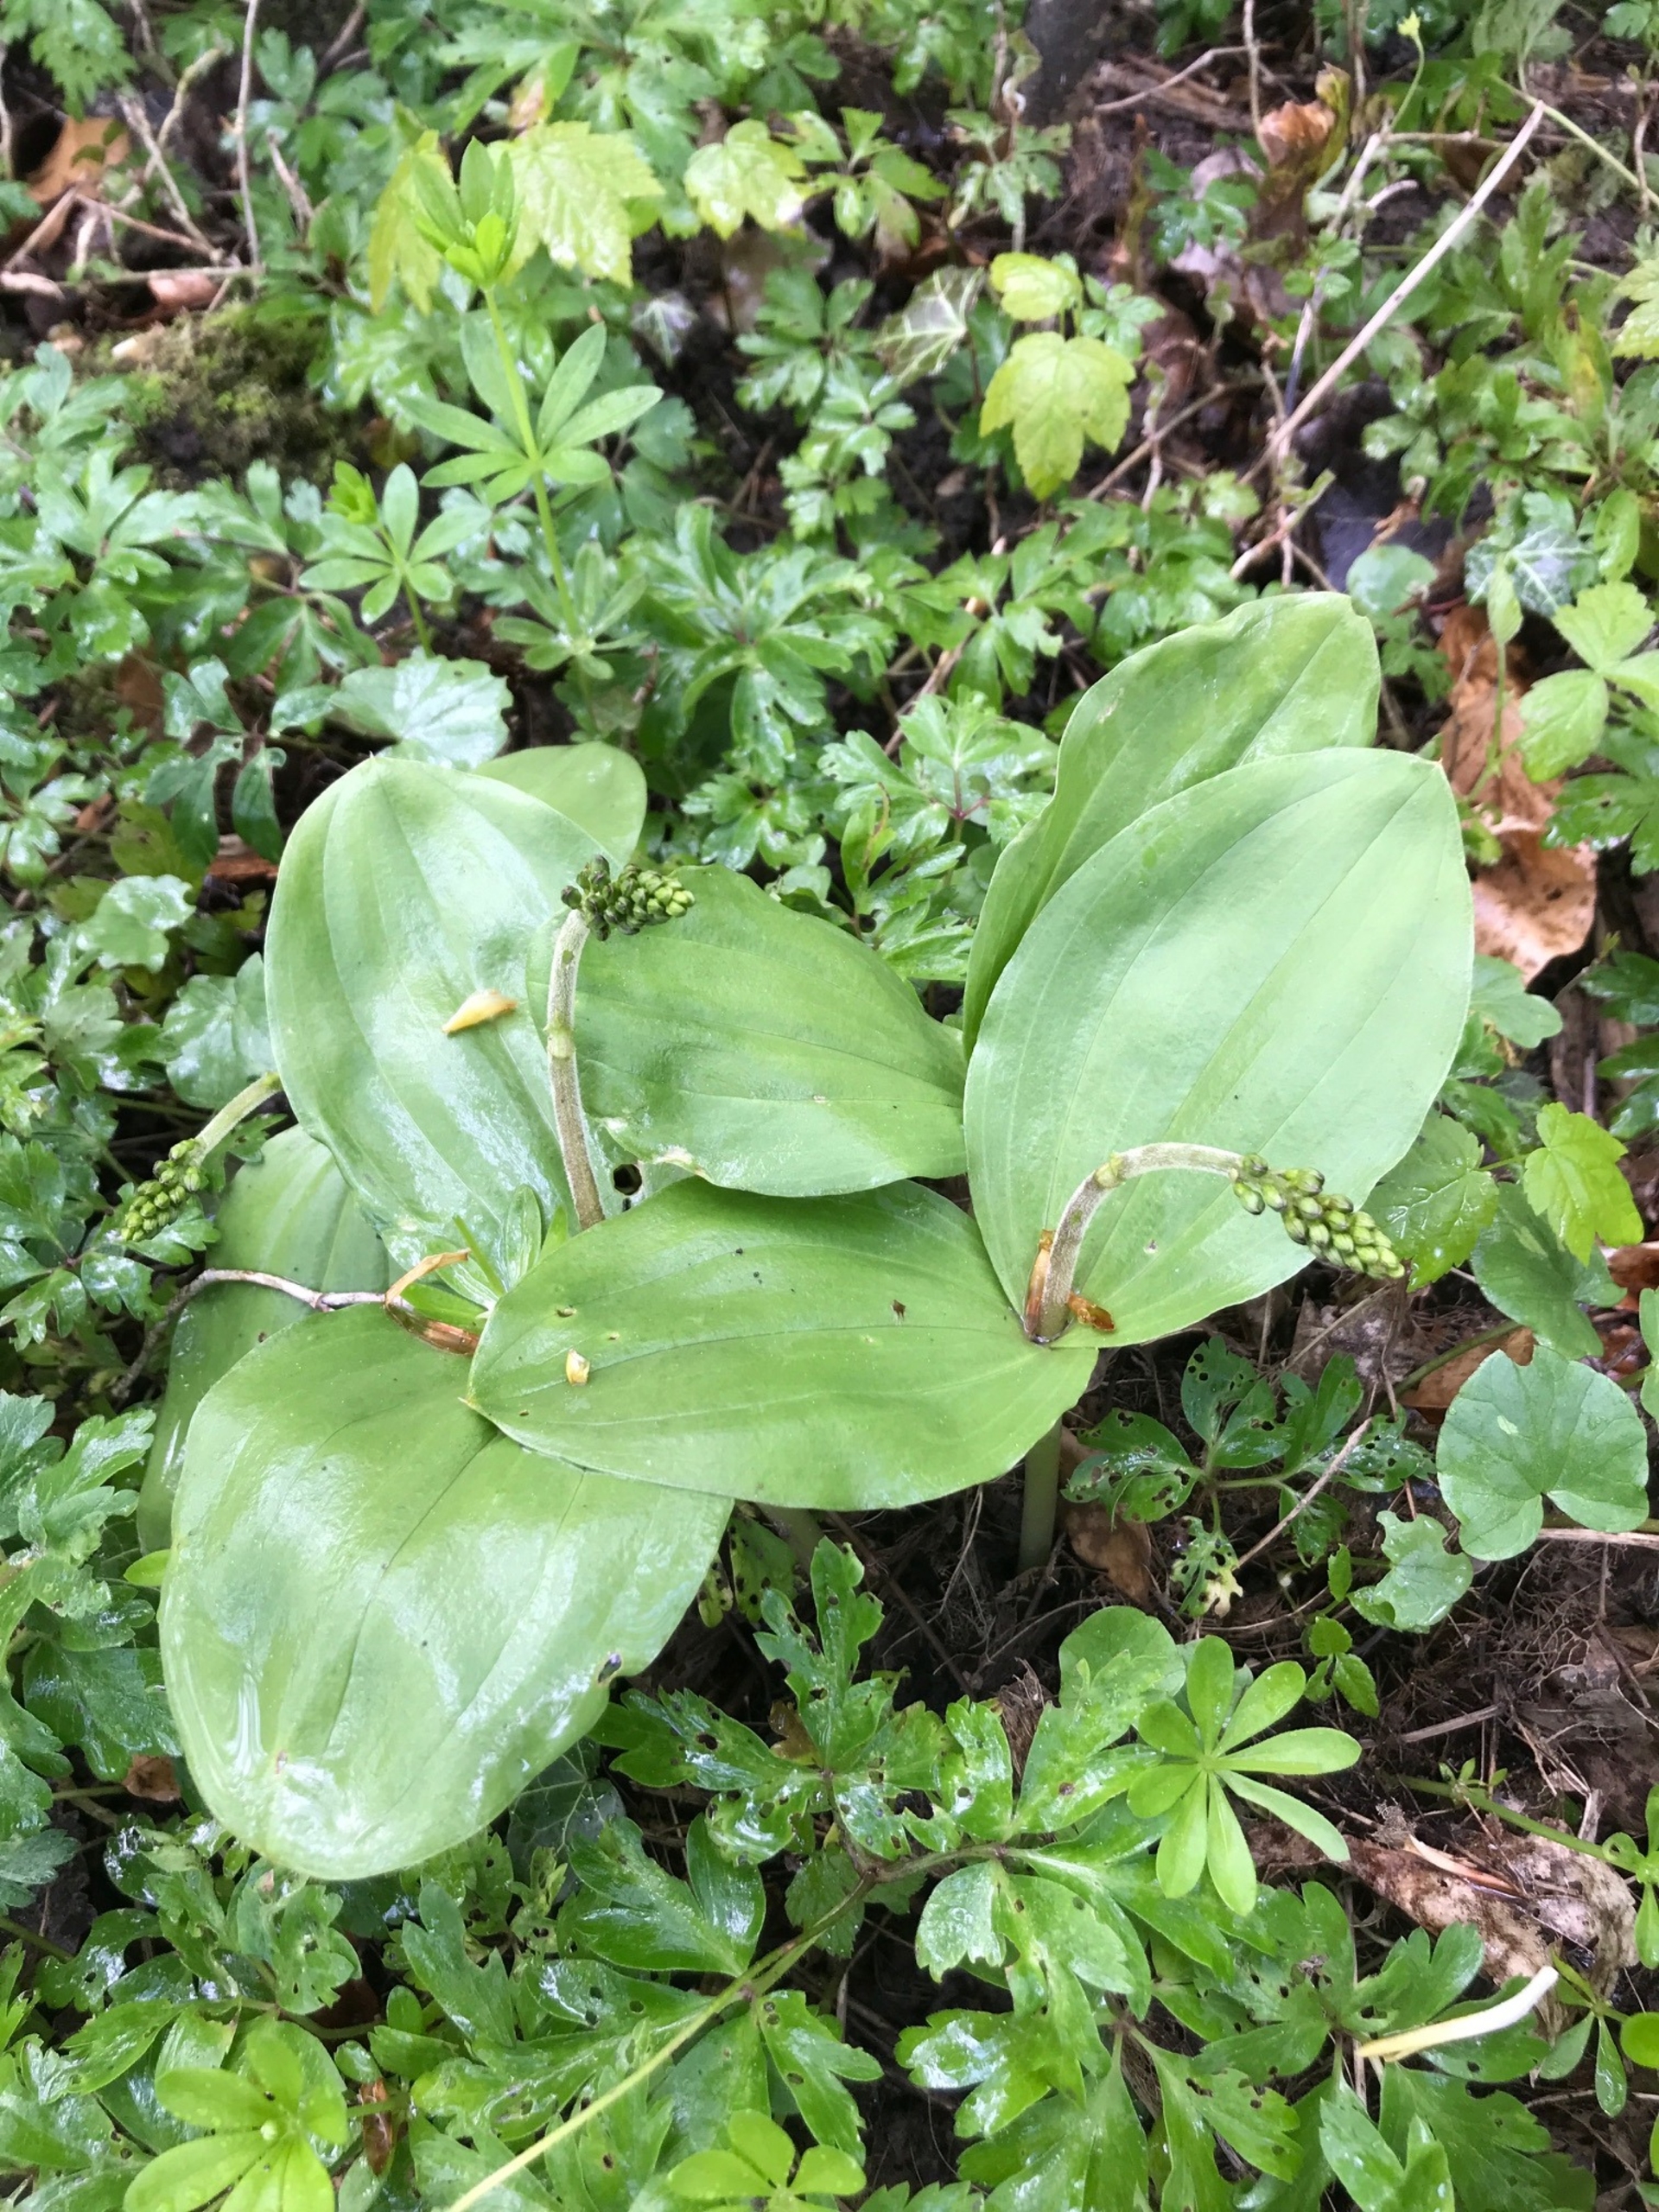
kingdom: Plantae
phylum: Tracheophyta
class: Liliopsida
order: Asparagales
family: Orchidaceae
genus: Neottia
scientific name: Neottia ovata
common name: Ægbladet fliglæbe
